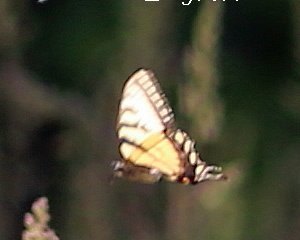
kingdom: Animalia
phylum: Arthropoda
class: Insecta
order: Lepidoptera
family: Papilionidae
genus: Pterourus
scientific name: Pterourus canadensis
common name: Canadian Tiger Swallowtail
